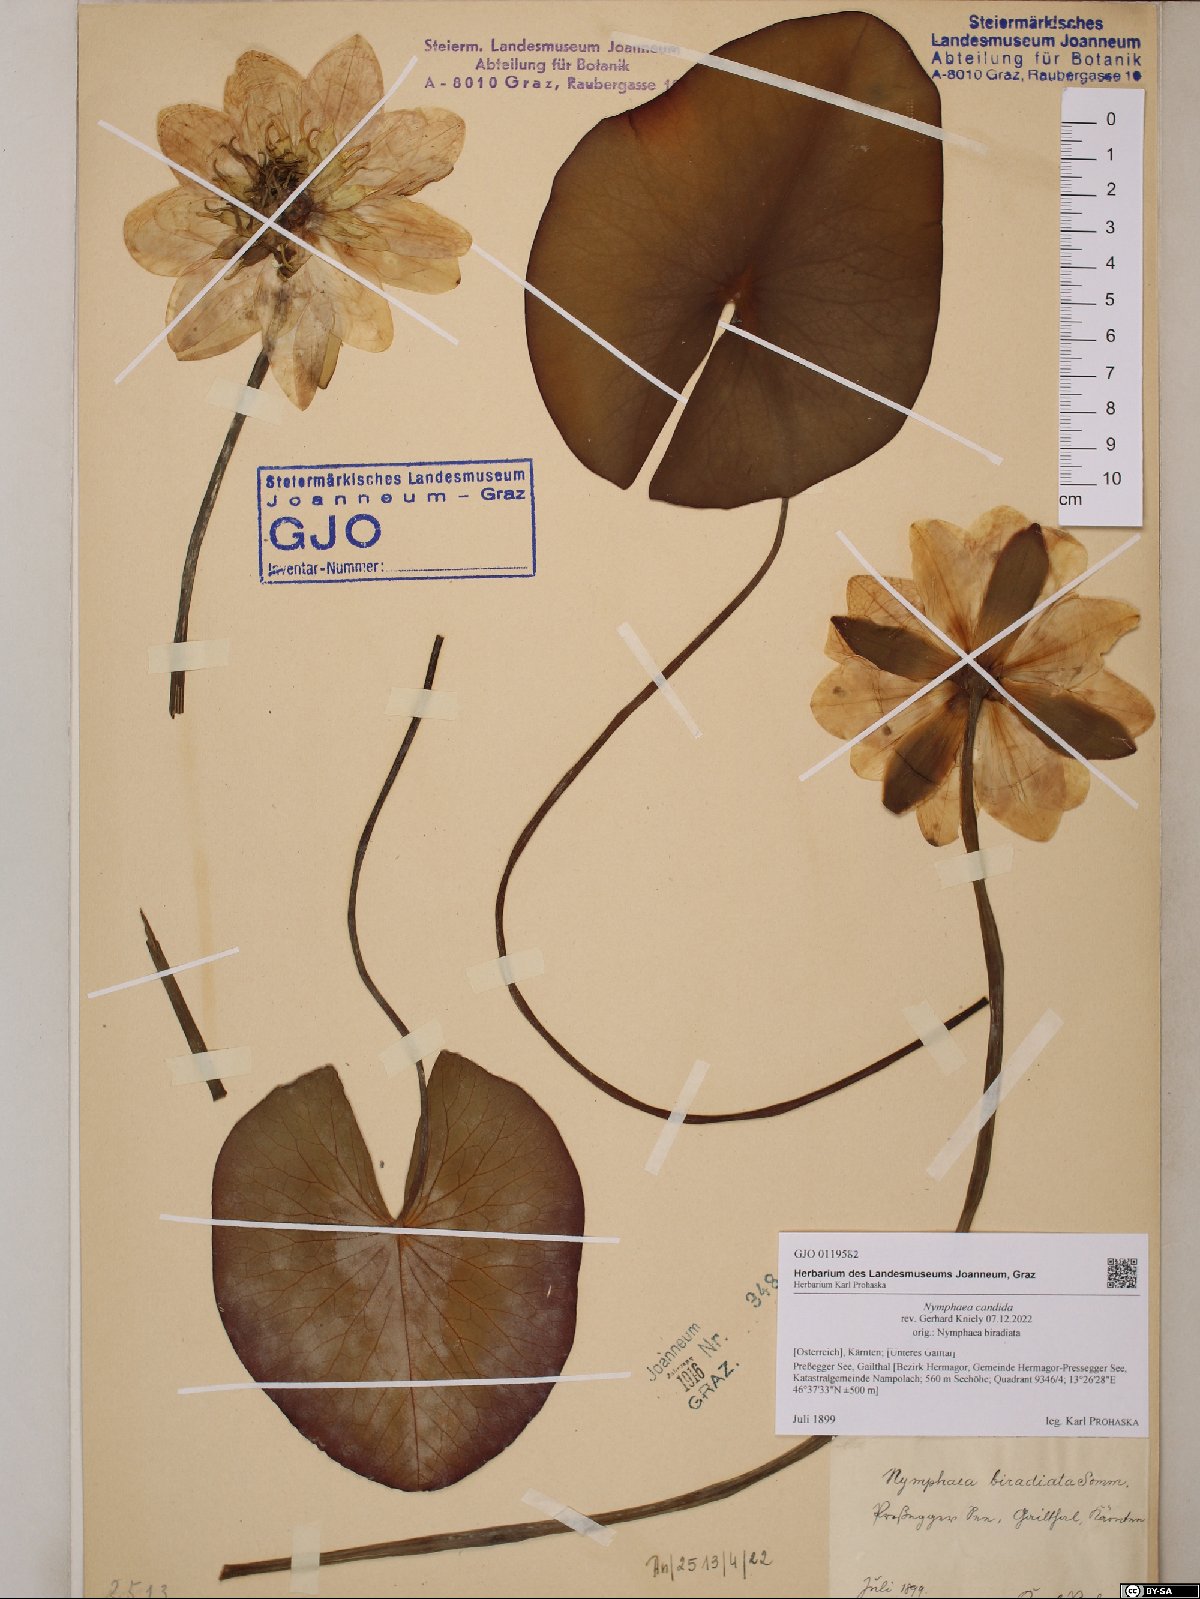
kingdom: Plantae
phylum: Tracheophyta
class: Magnoliopsida
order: Nymphaeales
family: Nymphaeaceae
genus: Nymphaea
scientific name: Nymphaea candida
